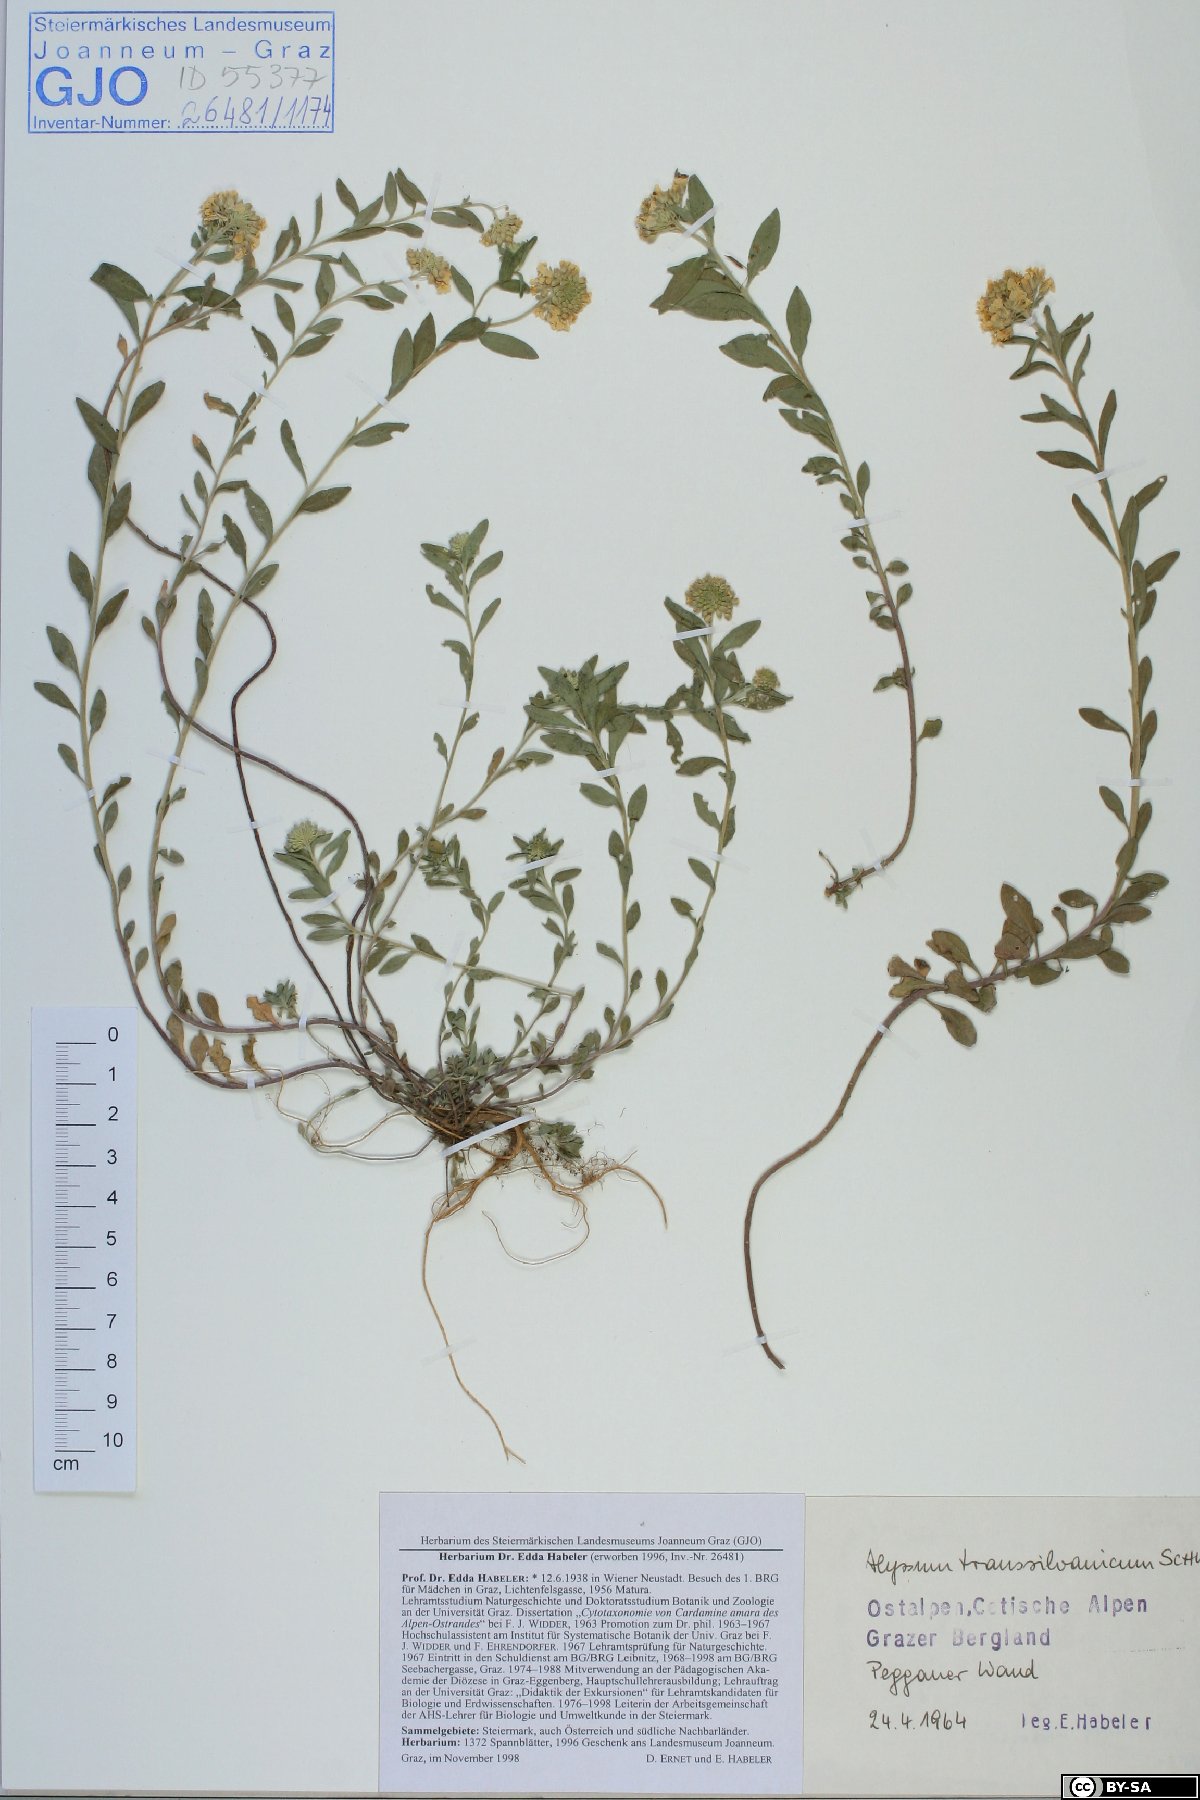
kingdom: Plantae
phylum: Tracheophyta
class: Magnoliopsida
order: Brassicales
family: Brassicaceae
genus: Alyssum
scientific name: Alyssum repens
